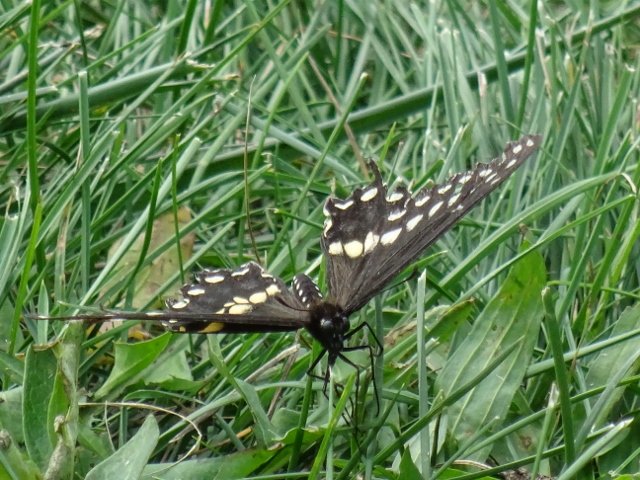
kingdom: Animalia
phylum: Arthropoda
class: Insecta
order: Lepidoptera
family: Papilionidae
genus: Papilio
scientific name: Papilio polyxenes
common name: Black Swallowtail
